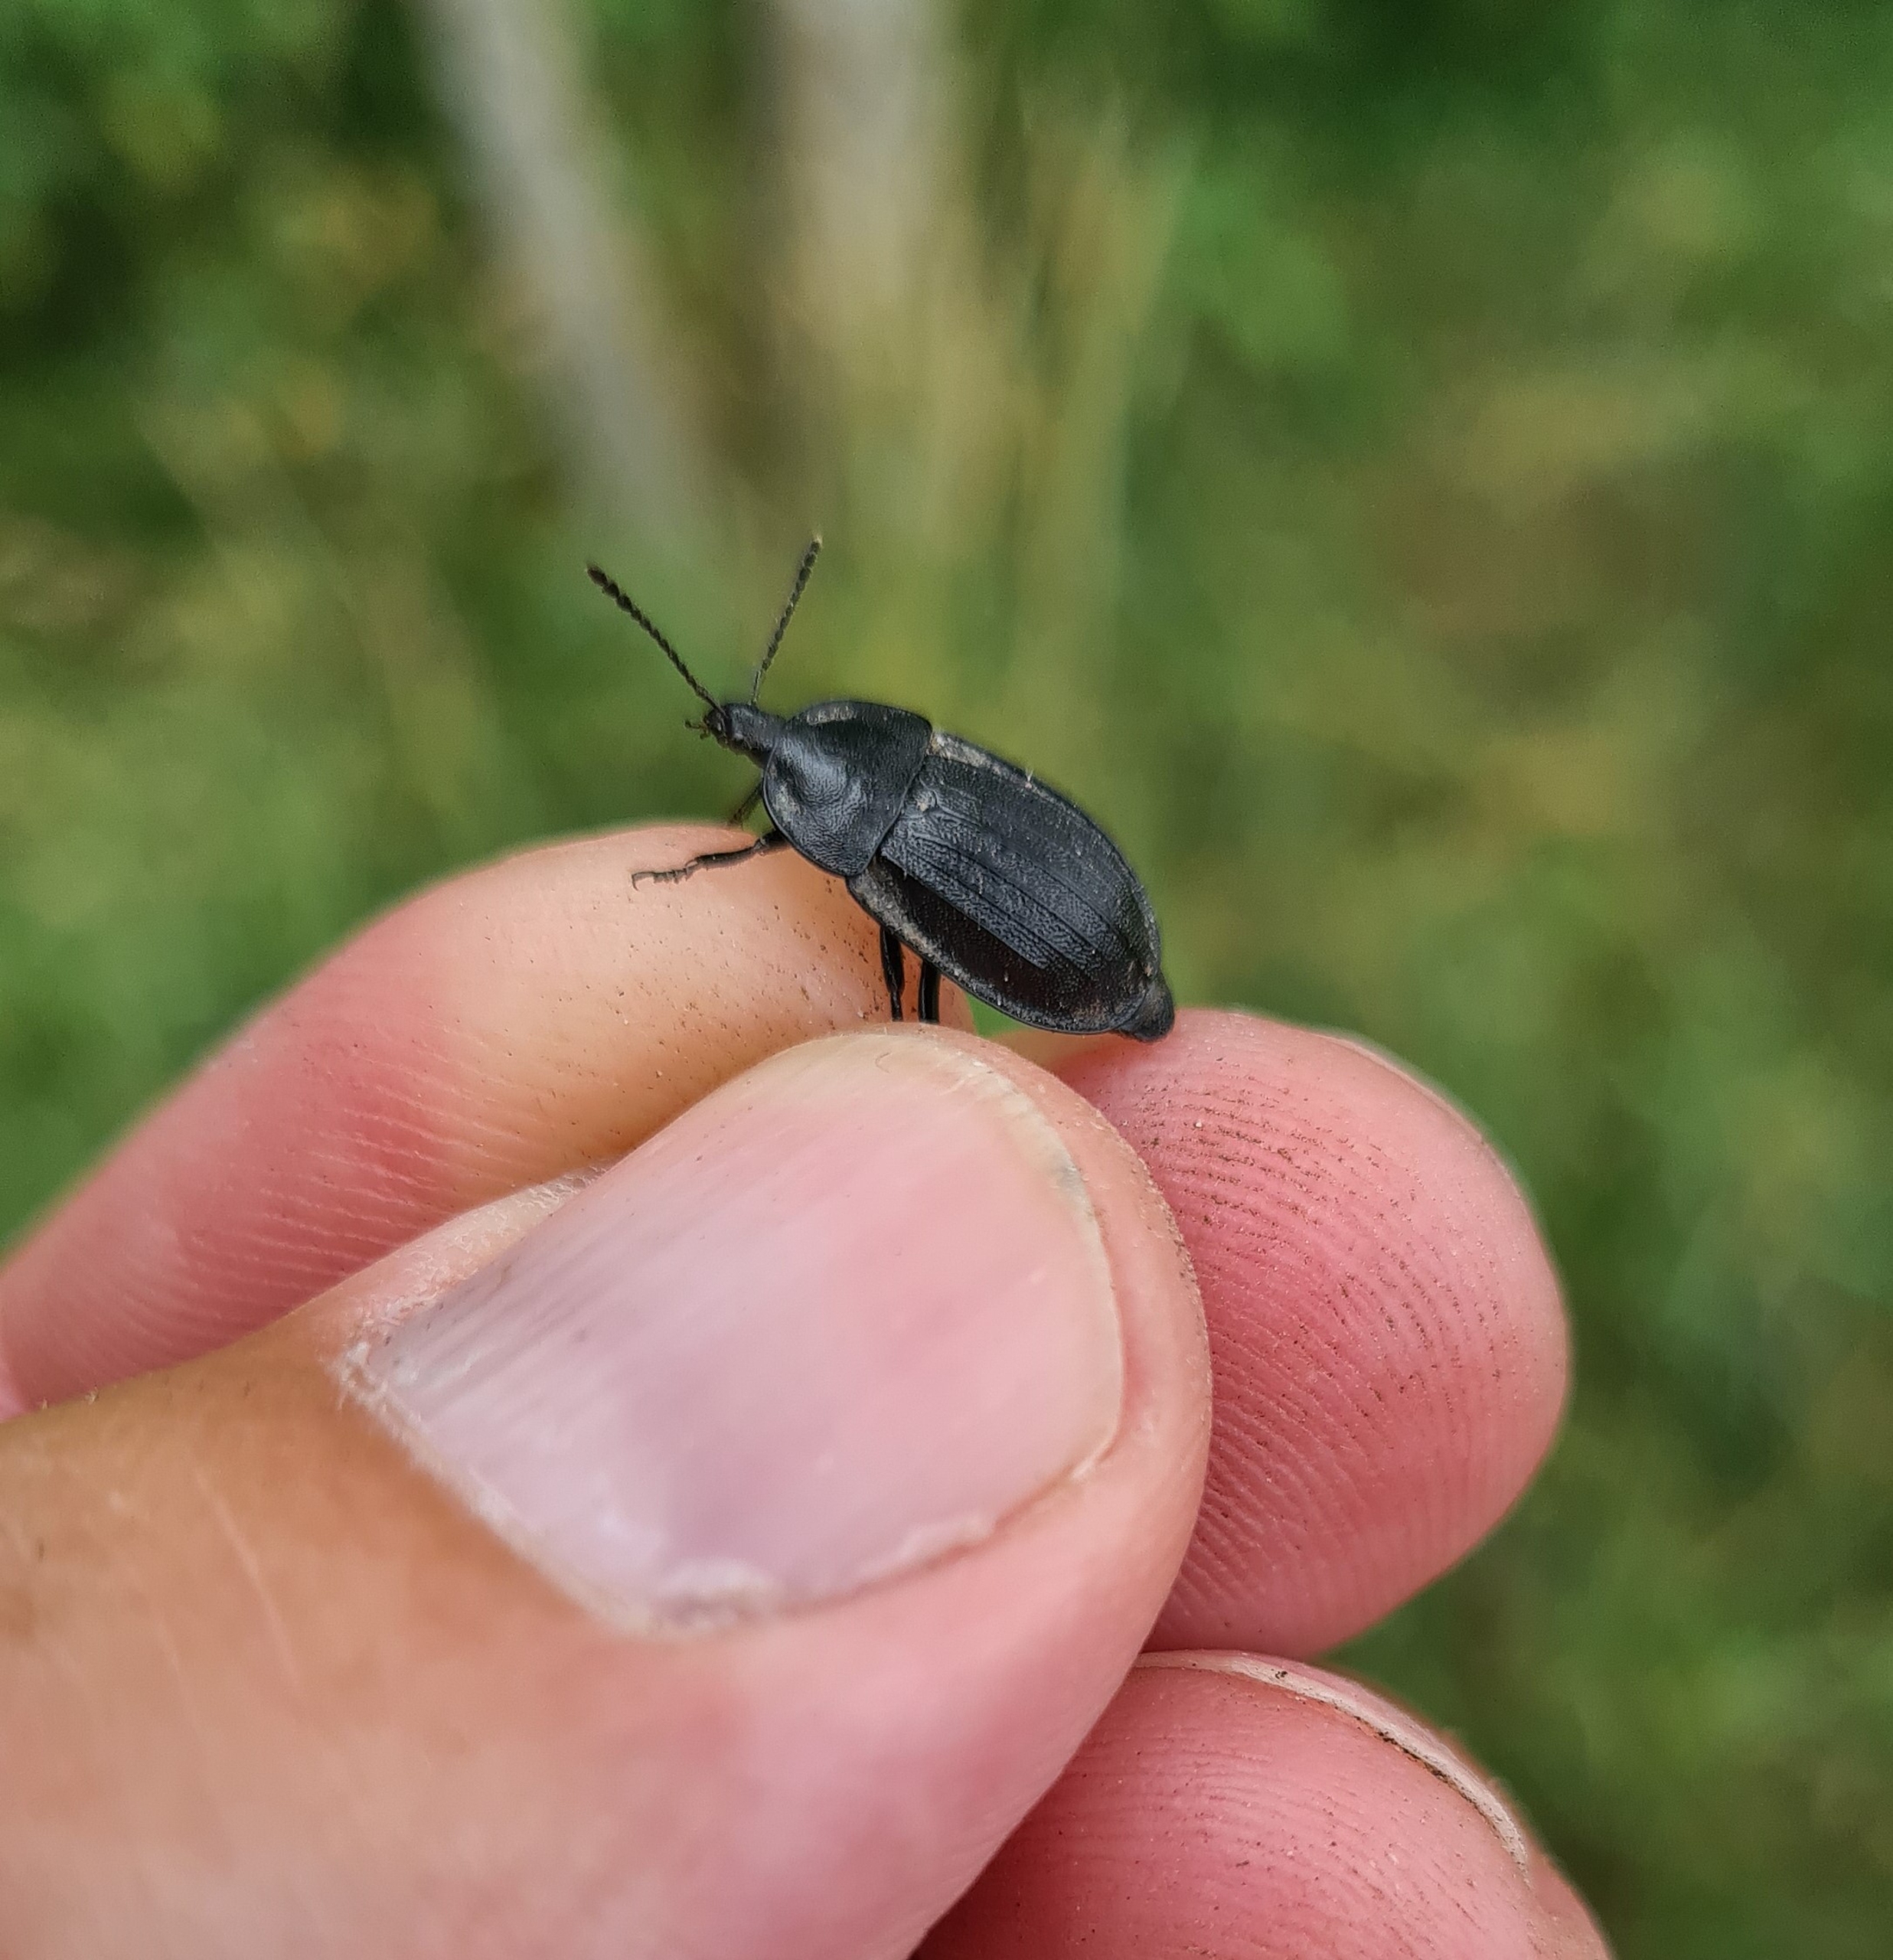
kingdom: Animalia
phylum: Arthropoda
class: Insecta
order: Coleoptera
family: Staphylinidae
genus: Silpha
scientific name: Silpha atrata
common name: Snegleådselbille
